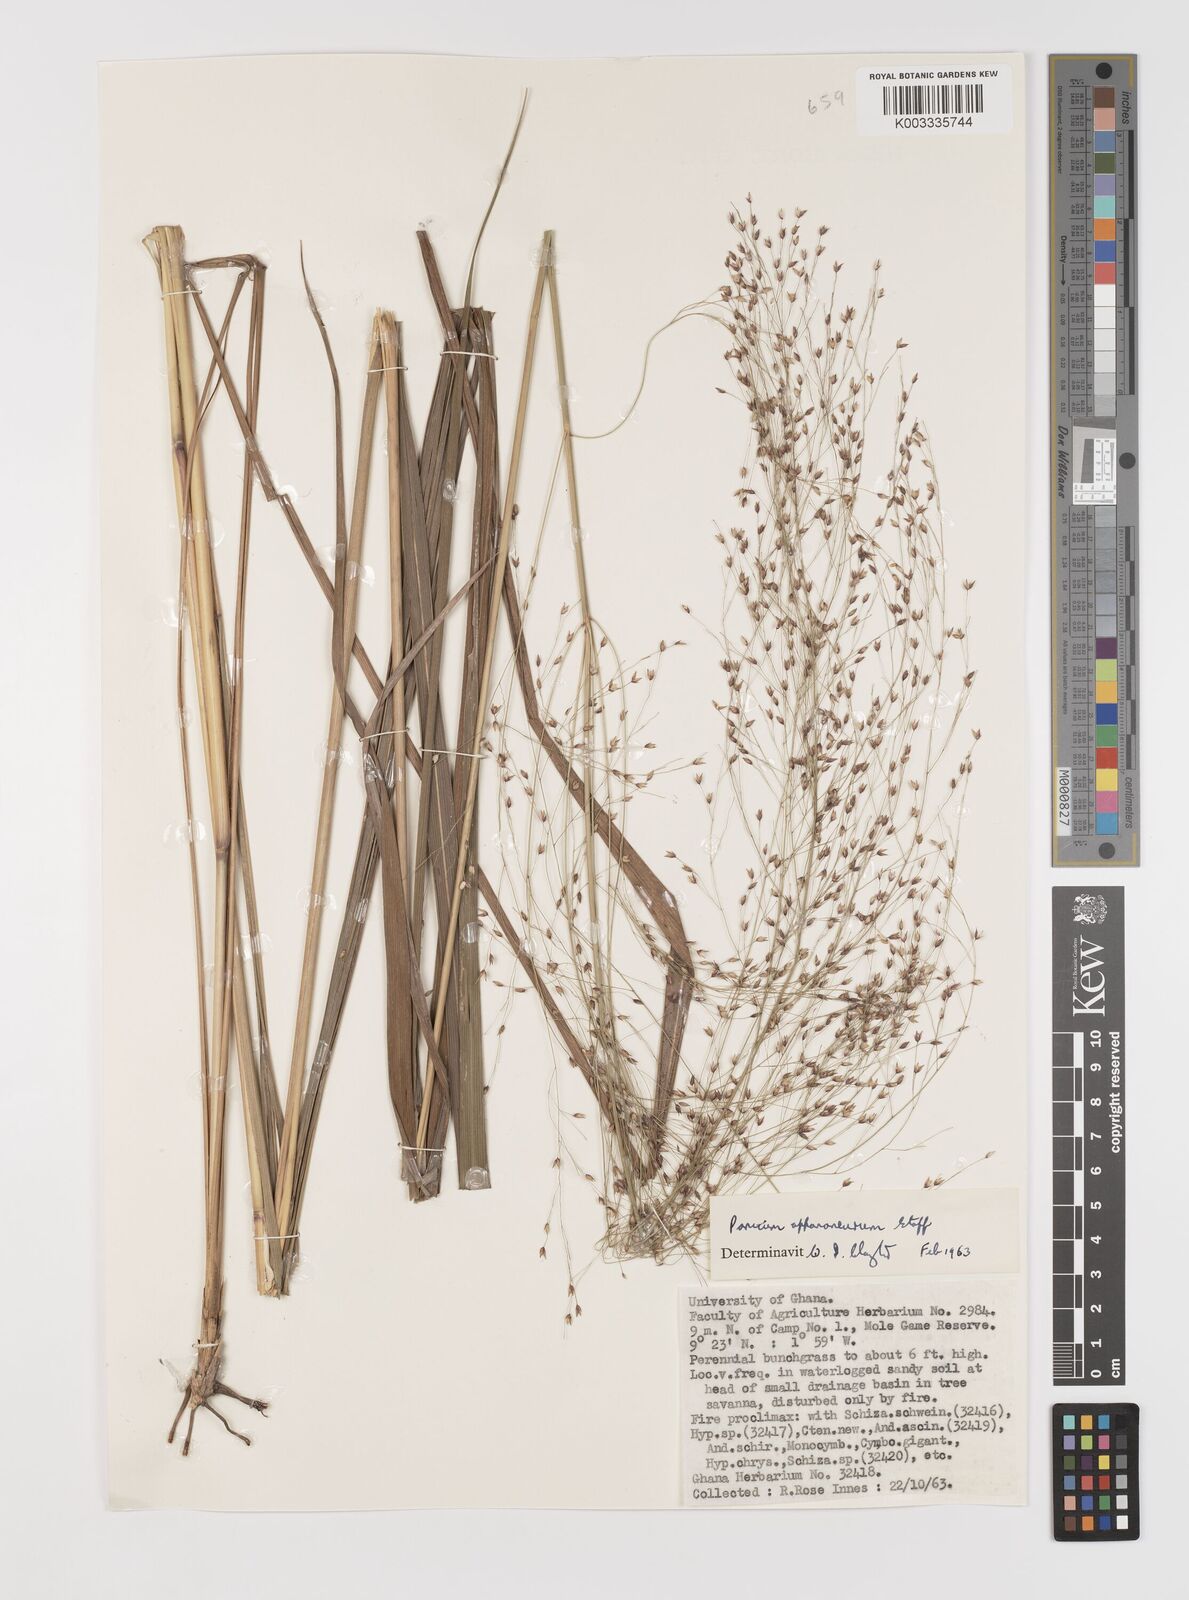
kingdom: Plantae
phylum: Tracheophyta
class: Liliopsida
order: Poales
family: Poaceae
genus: Panicum
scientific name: Panicum fluviicola
